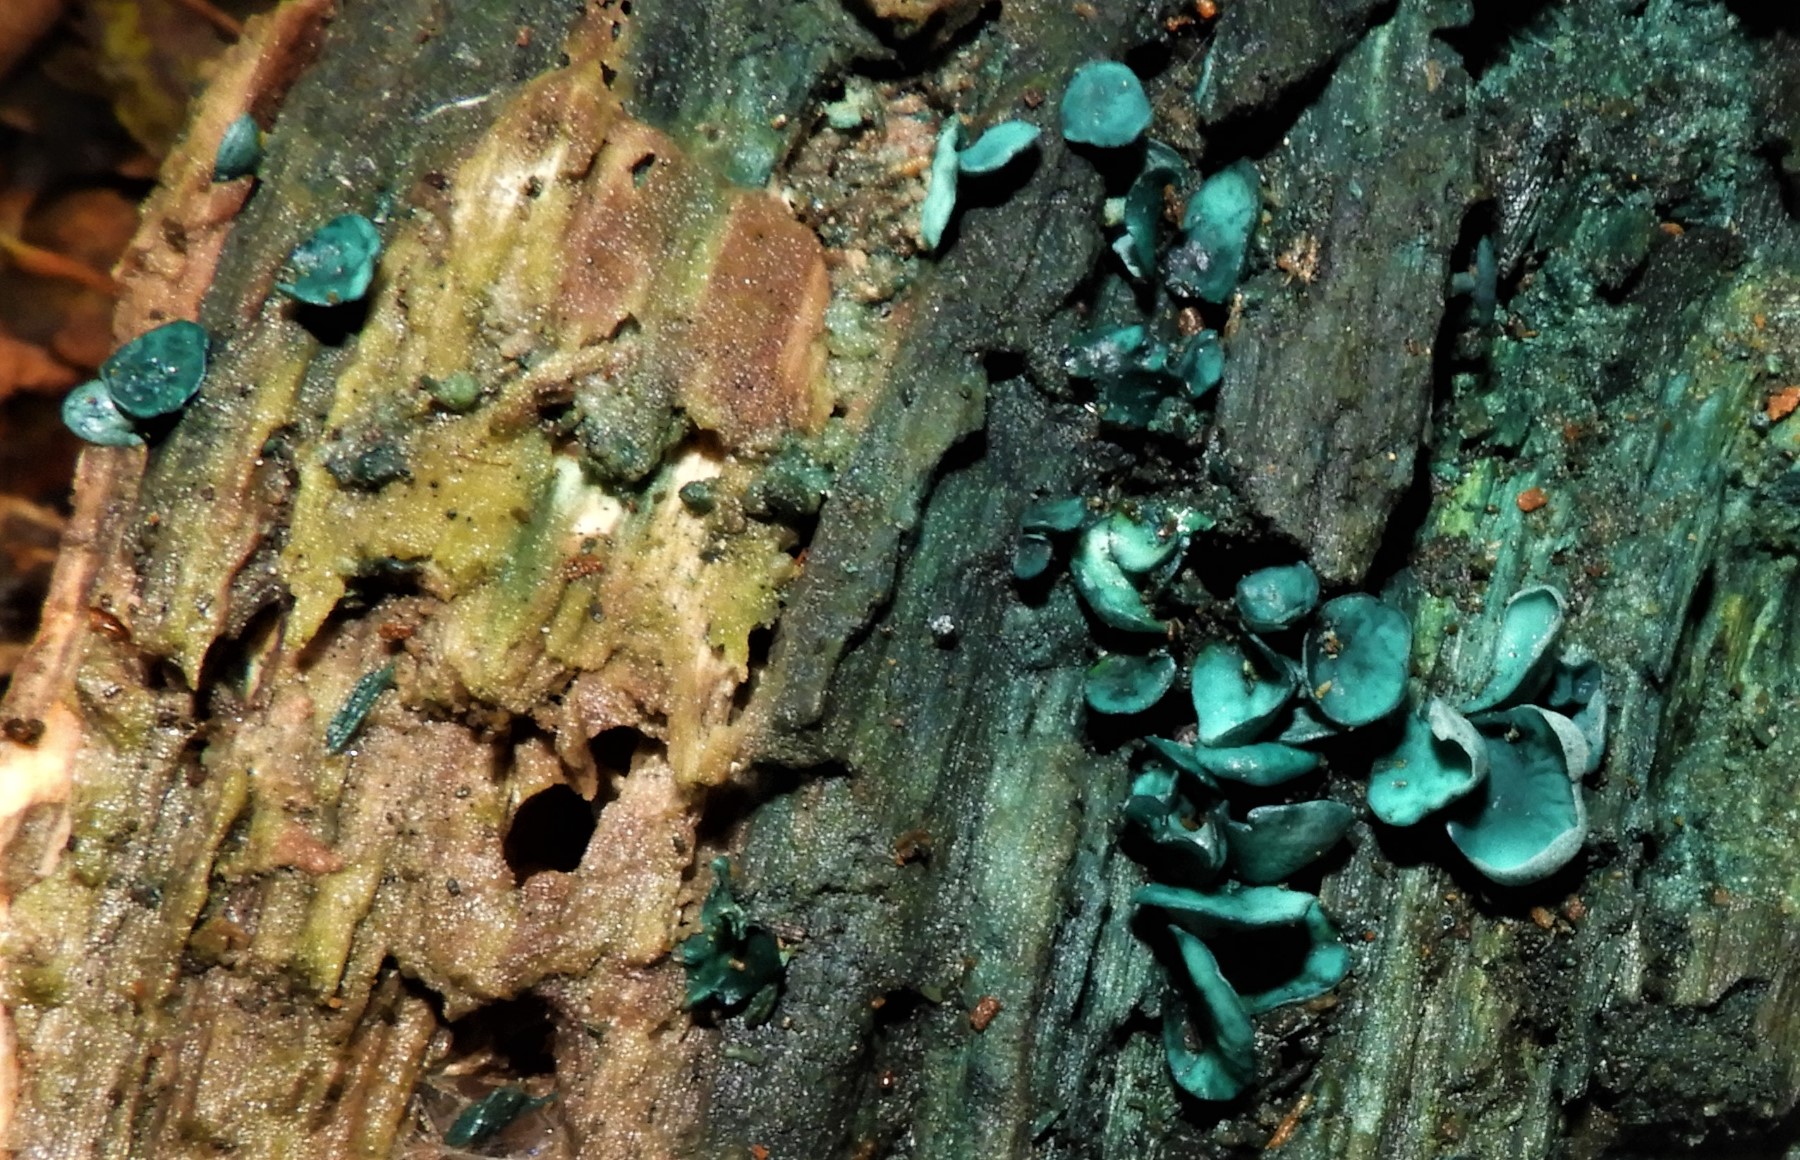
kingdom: Fungi
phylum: Ascomycota
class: Leotiomycetes
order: Helotiales
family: Chlorociboriaceae
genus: Chlorociboria
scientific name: Chlorociboria aeruginascens
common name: almindelig grønskive
